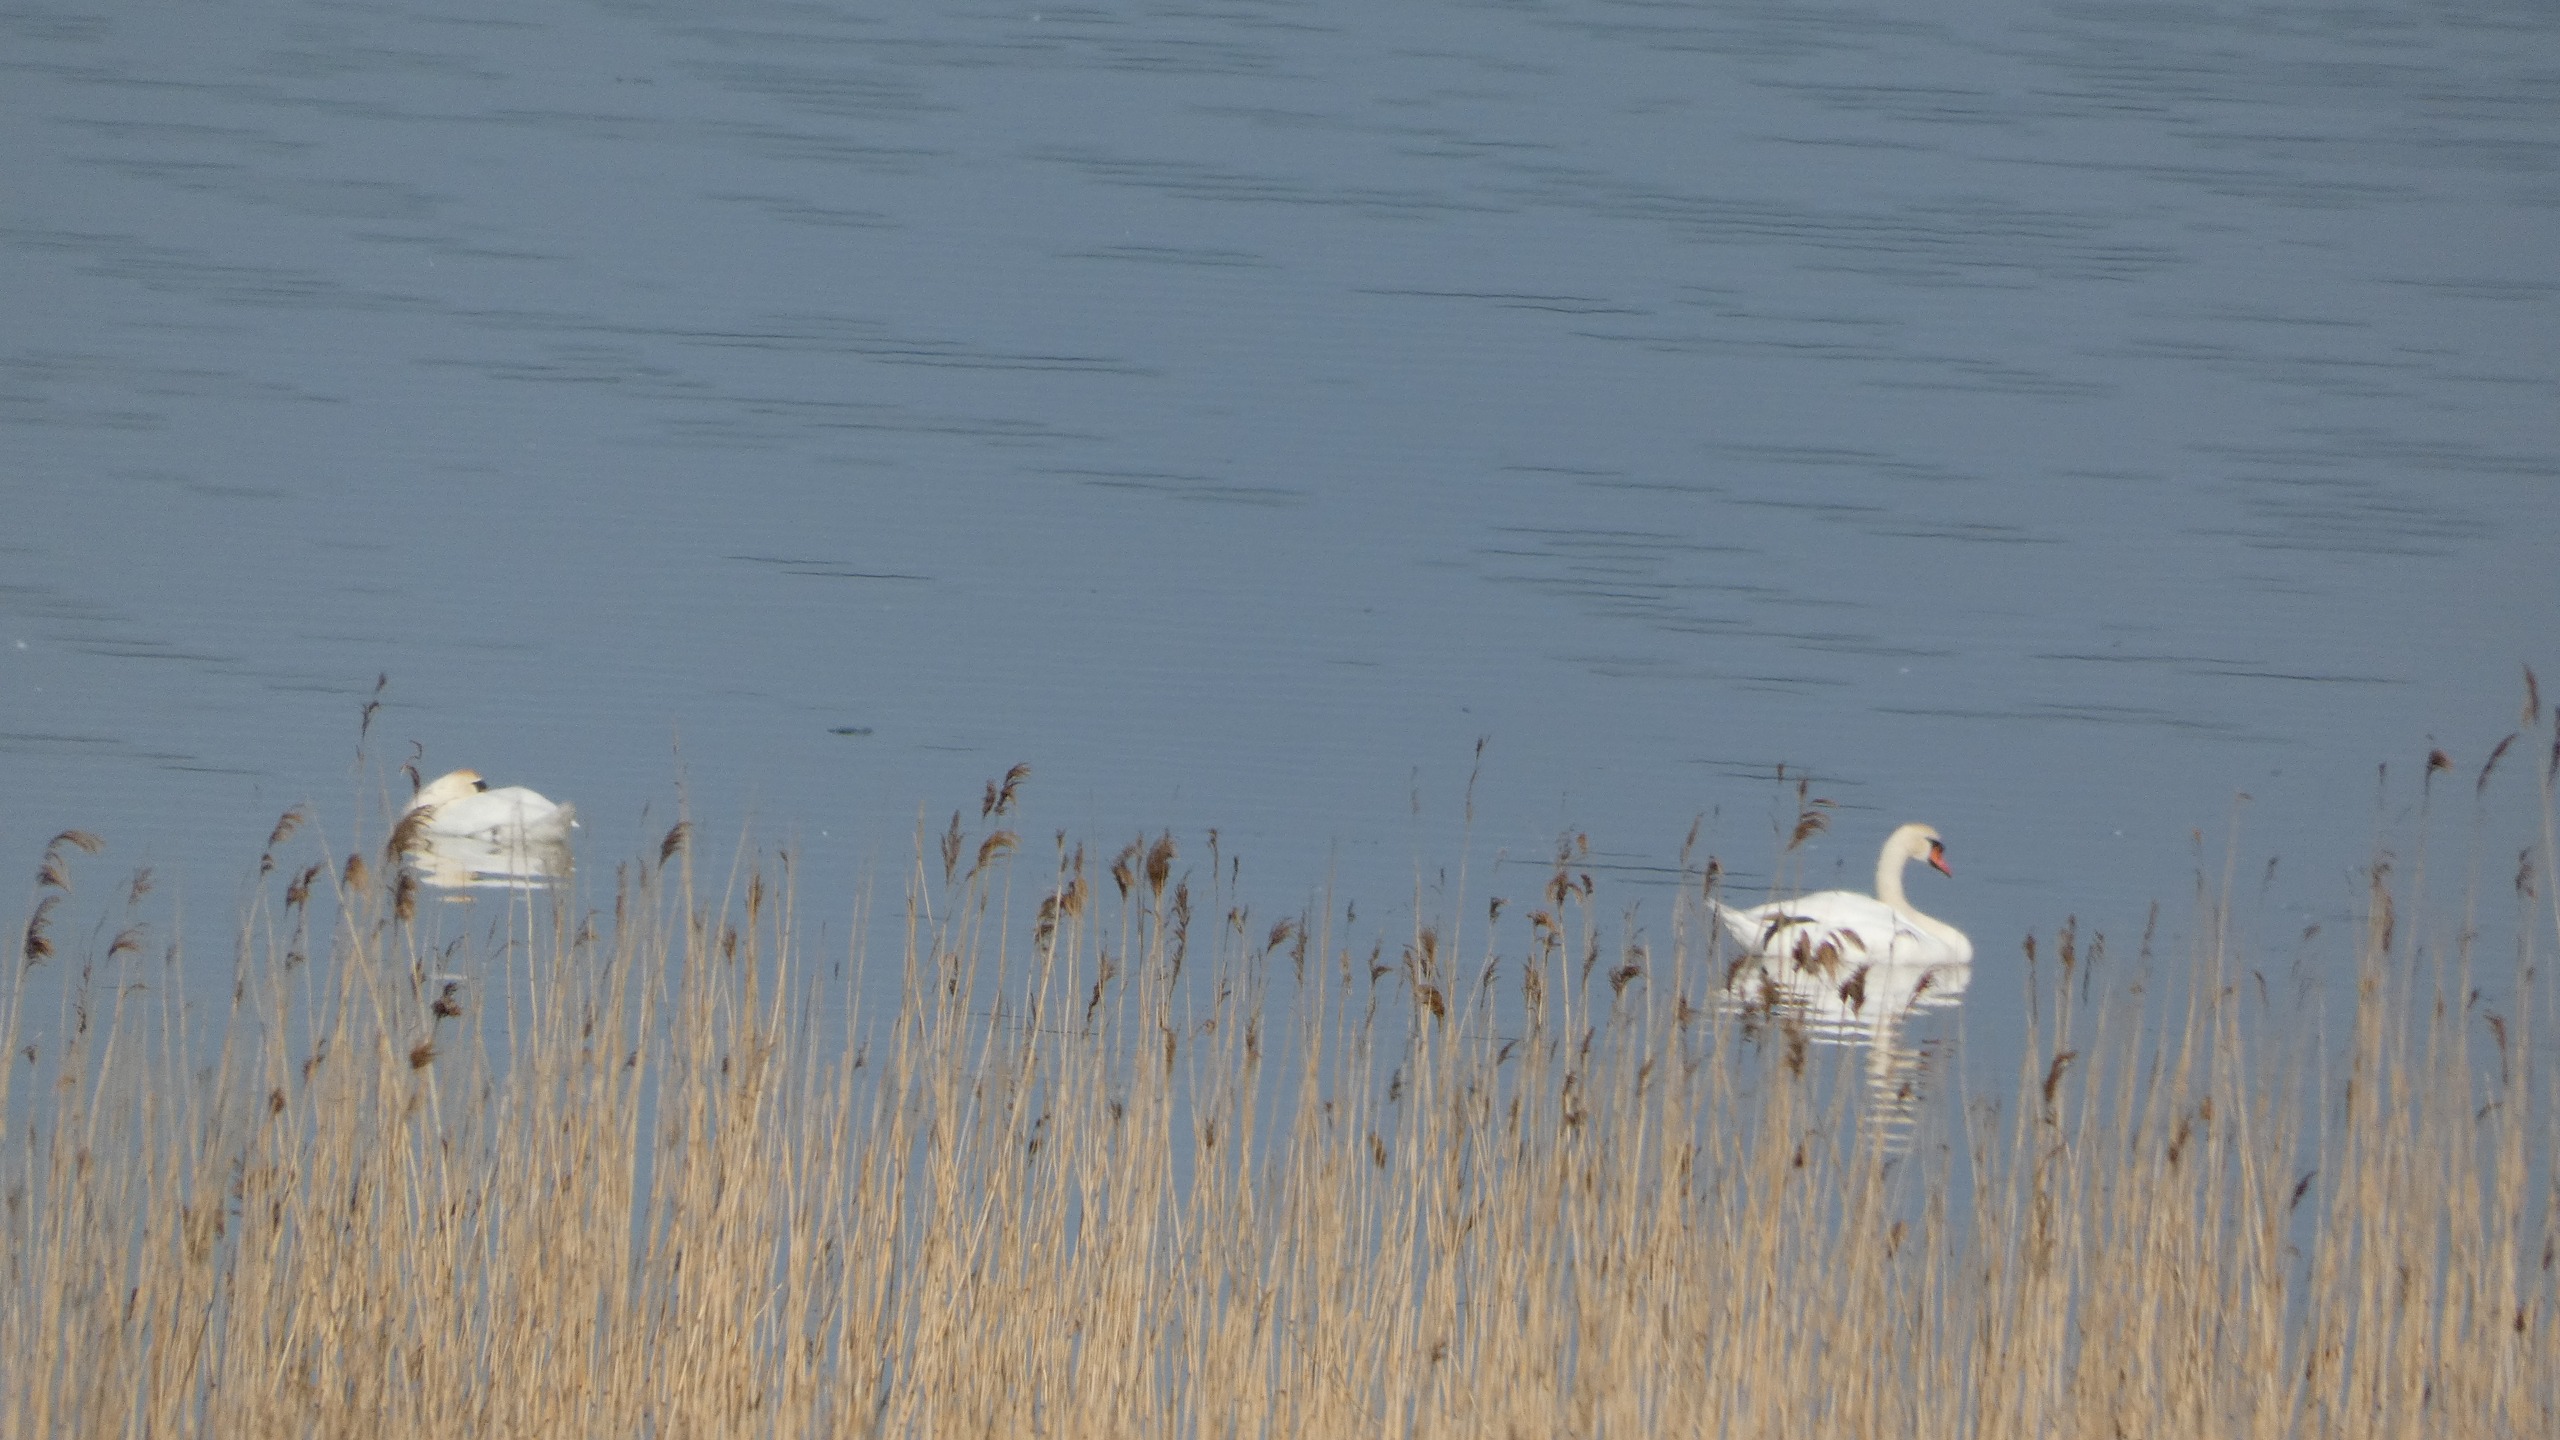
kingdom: Animalia
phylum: Chordata
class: Aves
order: Anseriformes
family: Anatidae
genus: Cygnus
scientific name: Cygnus olor
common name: Knopsvane
